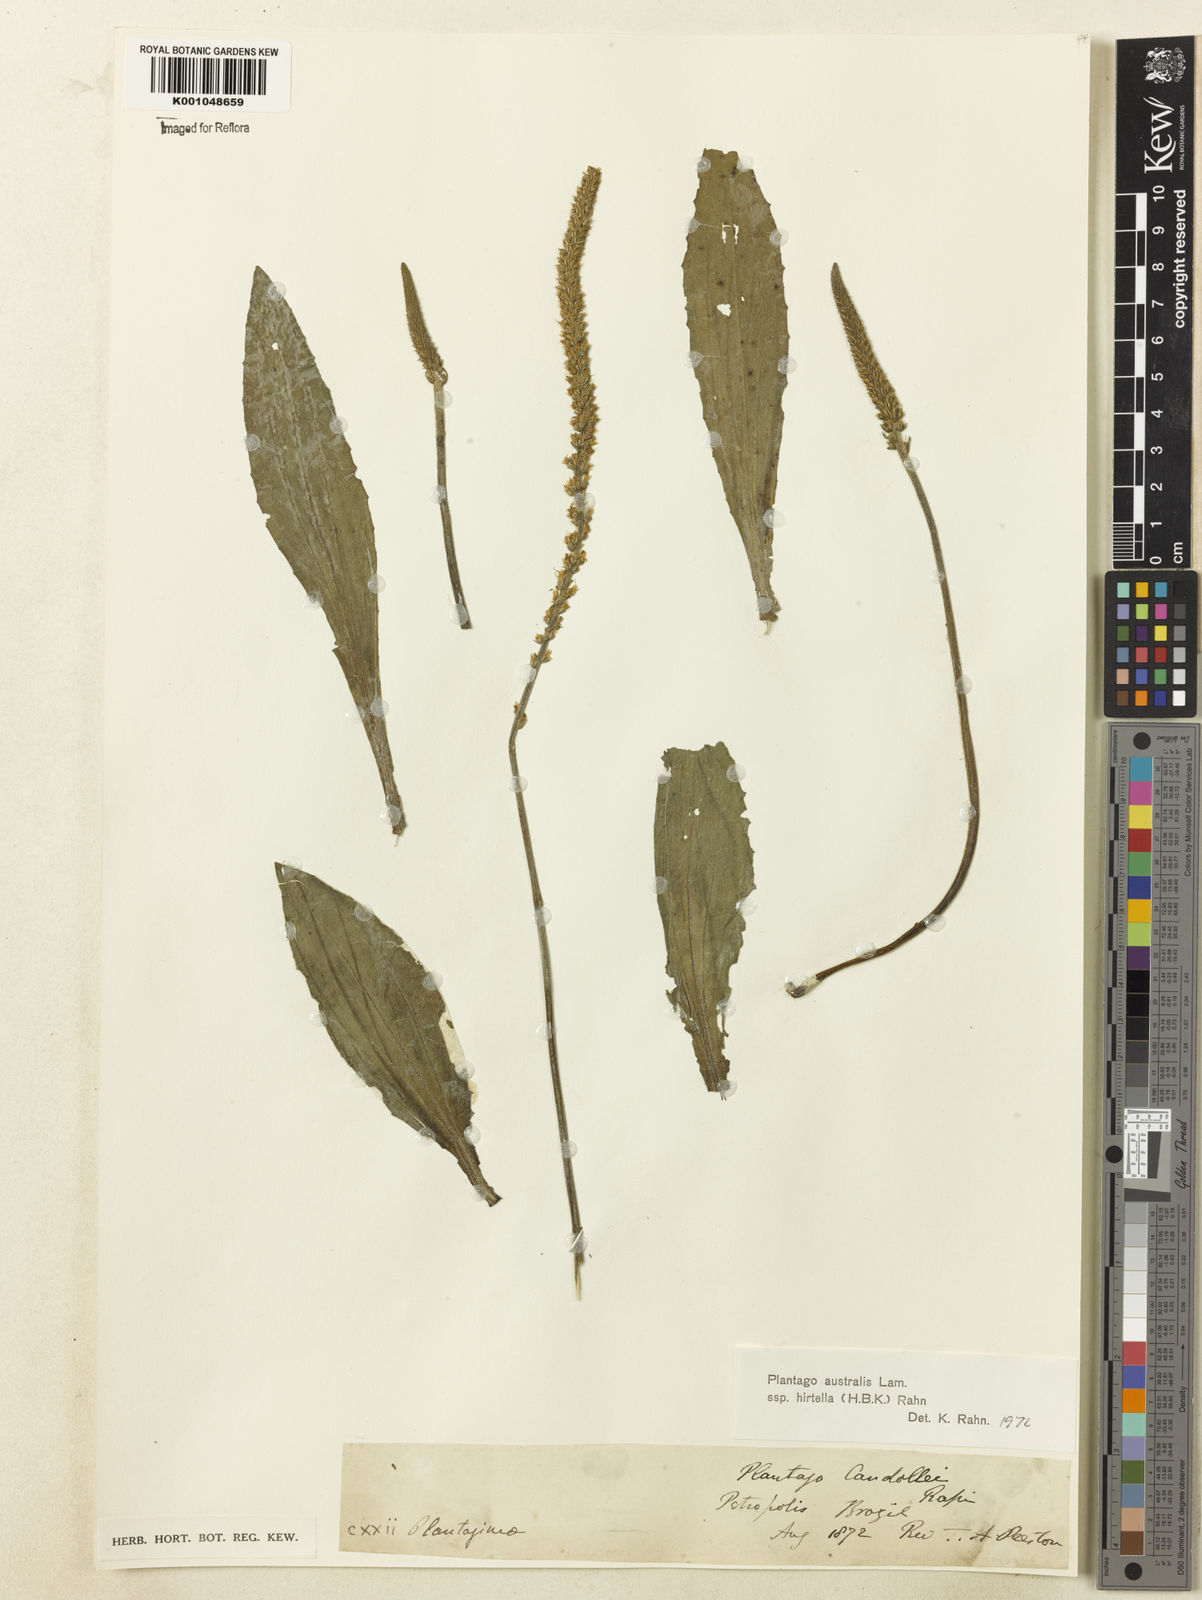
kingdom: Plantae
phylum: Tracheophyta
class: Magnoliopsida
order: Lamiales
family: Plantaginaceae
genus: Plantago
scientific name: Plantago australis
